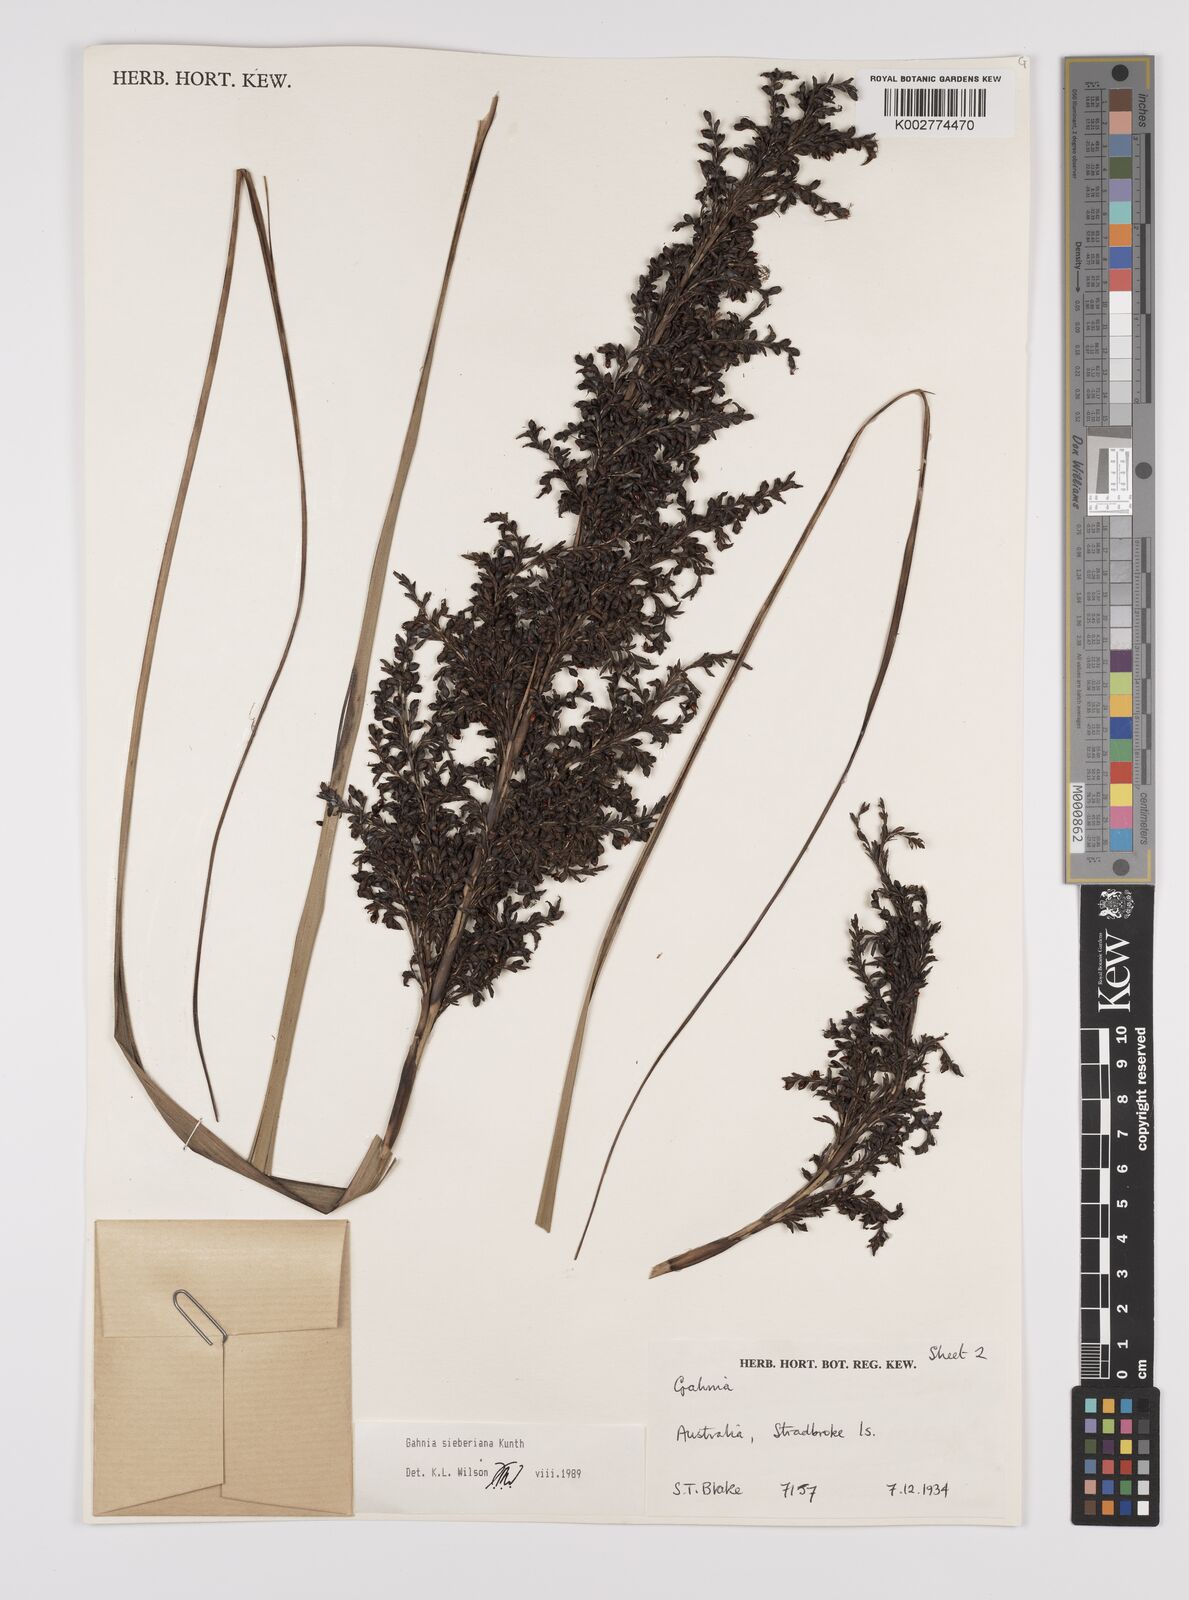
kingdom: Plantae
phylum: Tracheophyta
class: Liliopsida
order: Poales
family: Cyperaceae
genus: Gahnia
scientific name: Gahnia sieberiana
